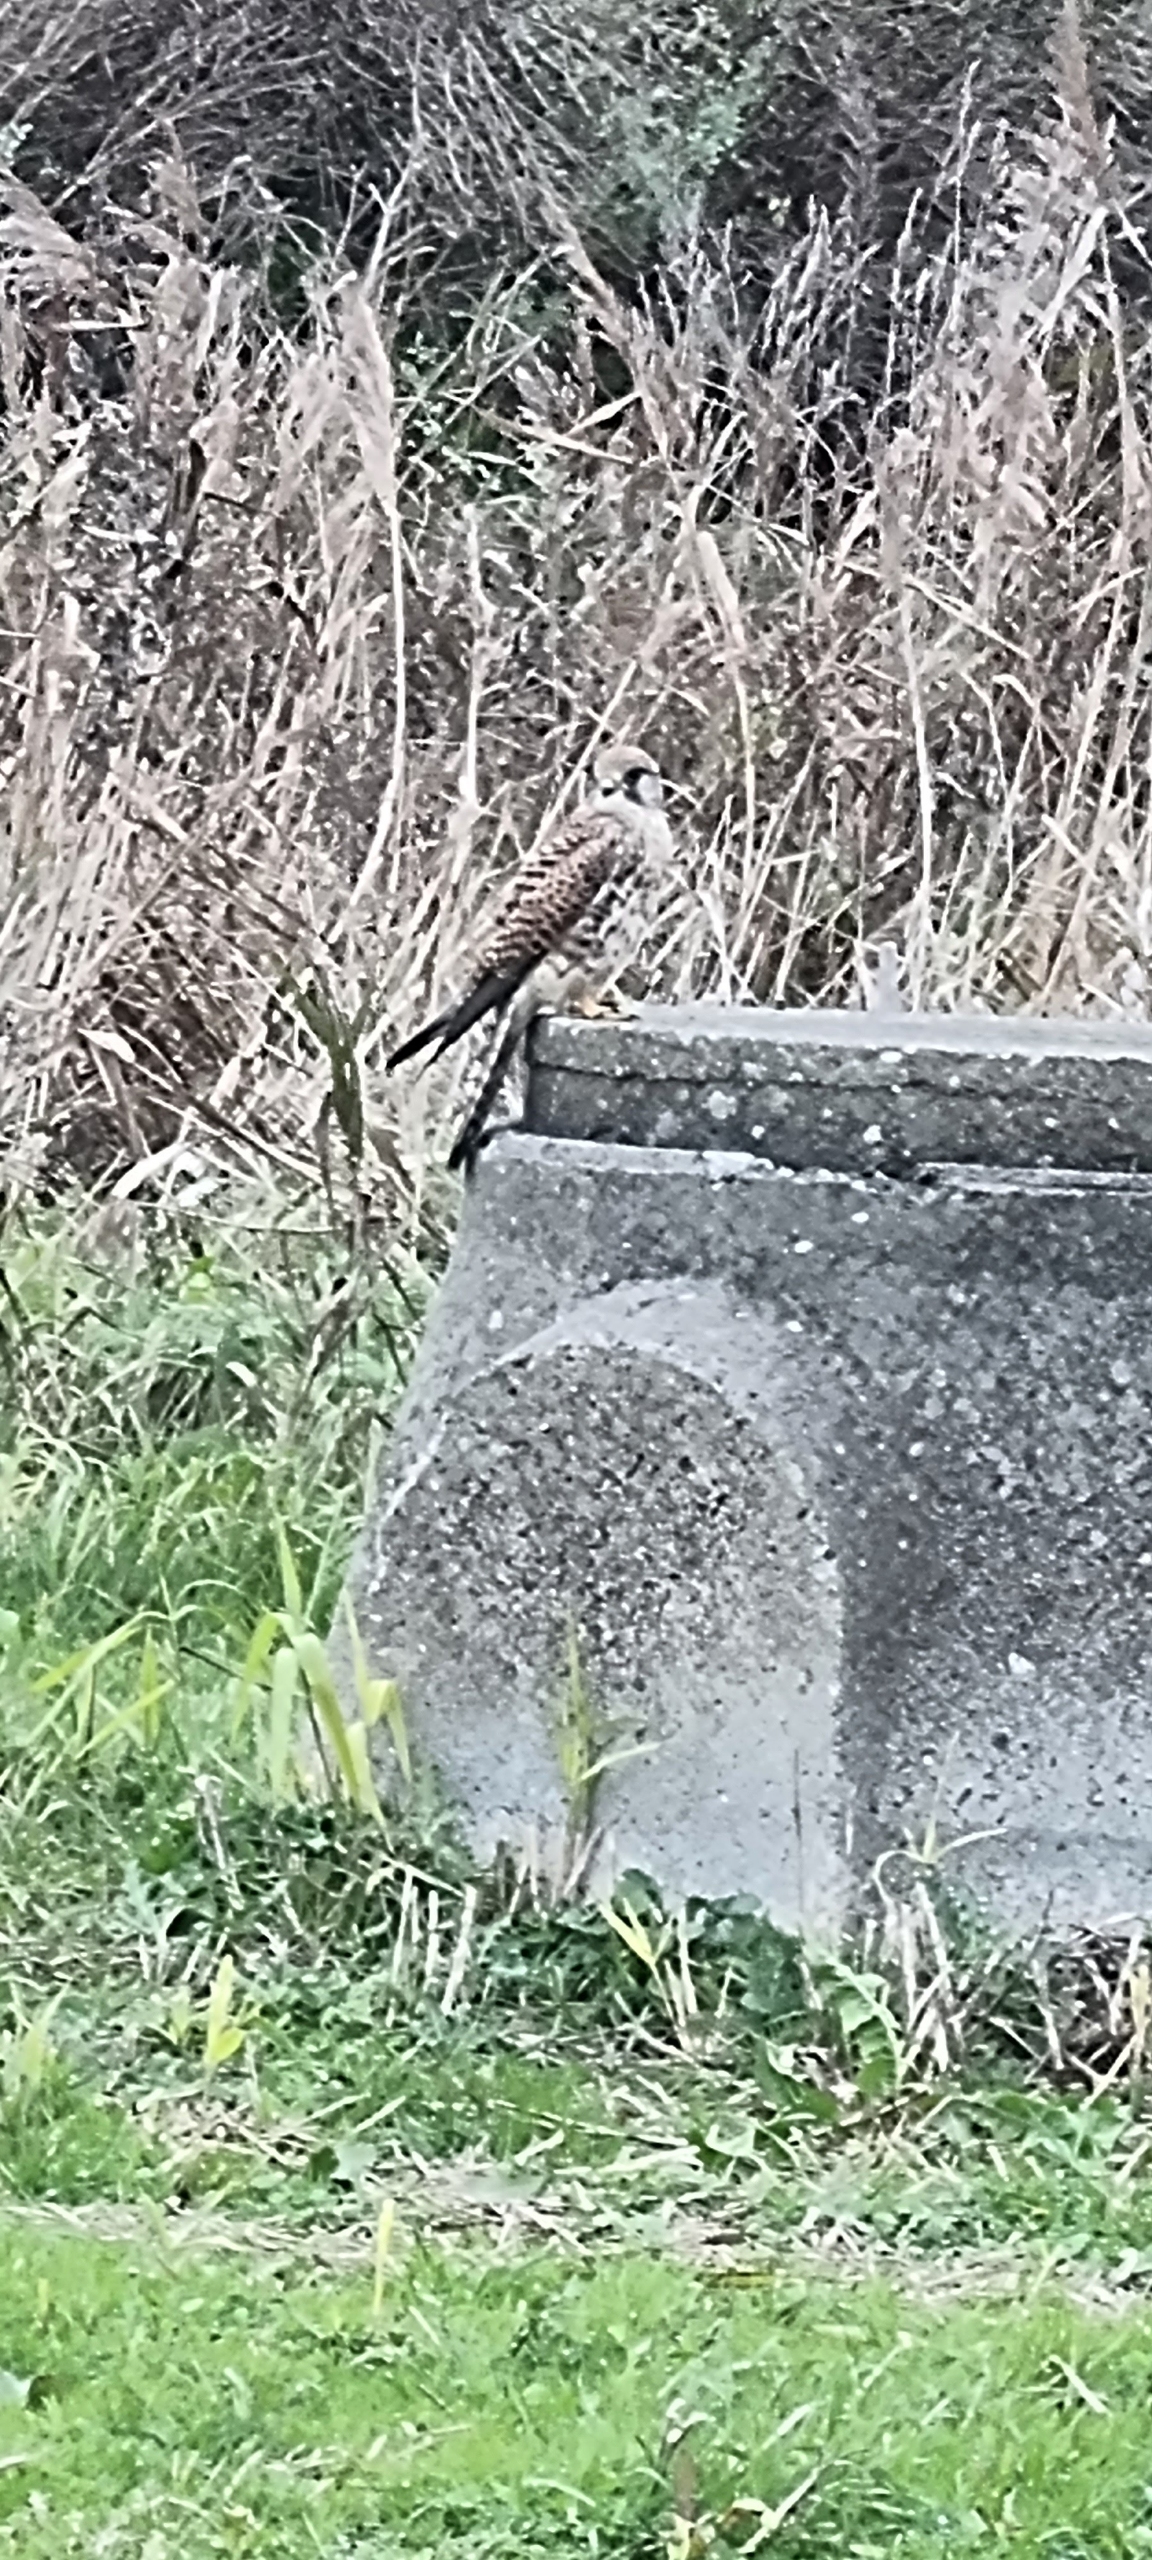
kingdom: Animalia
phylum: Chordata
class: Aves
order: Falconiformes
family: Falconidae
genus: Falco
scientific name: Falco tinnunculus
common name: Tårnfalk
